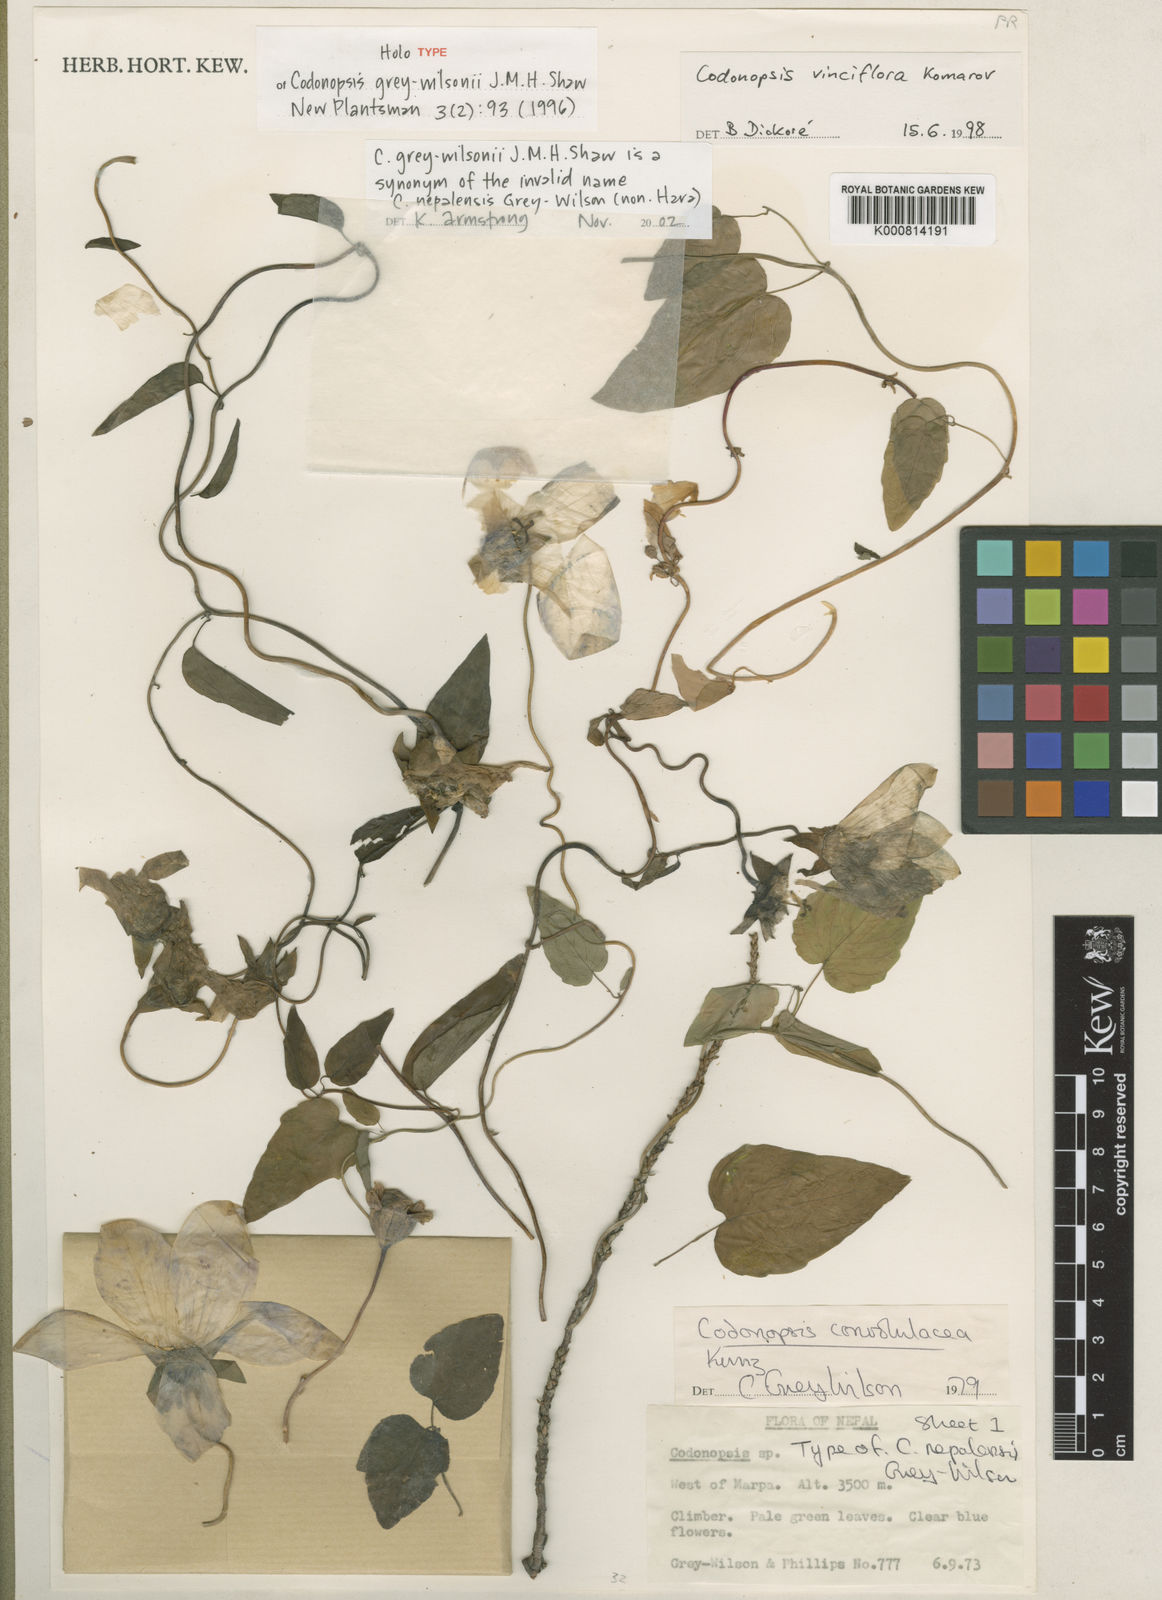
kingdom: Plantae
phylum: Tracheophyta
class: Magnoliopsida
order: Asterales
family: Campanulaceae
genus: Pseudocodon
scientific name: Pseudocodon grey-wilsonii
